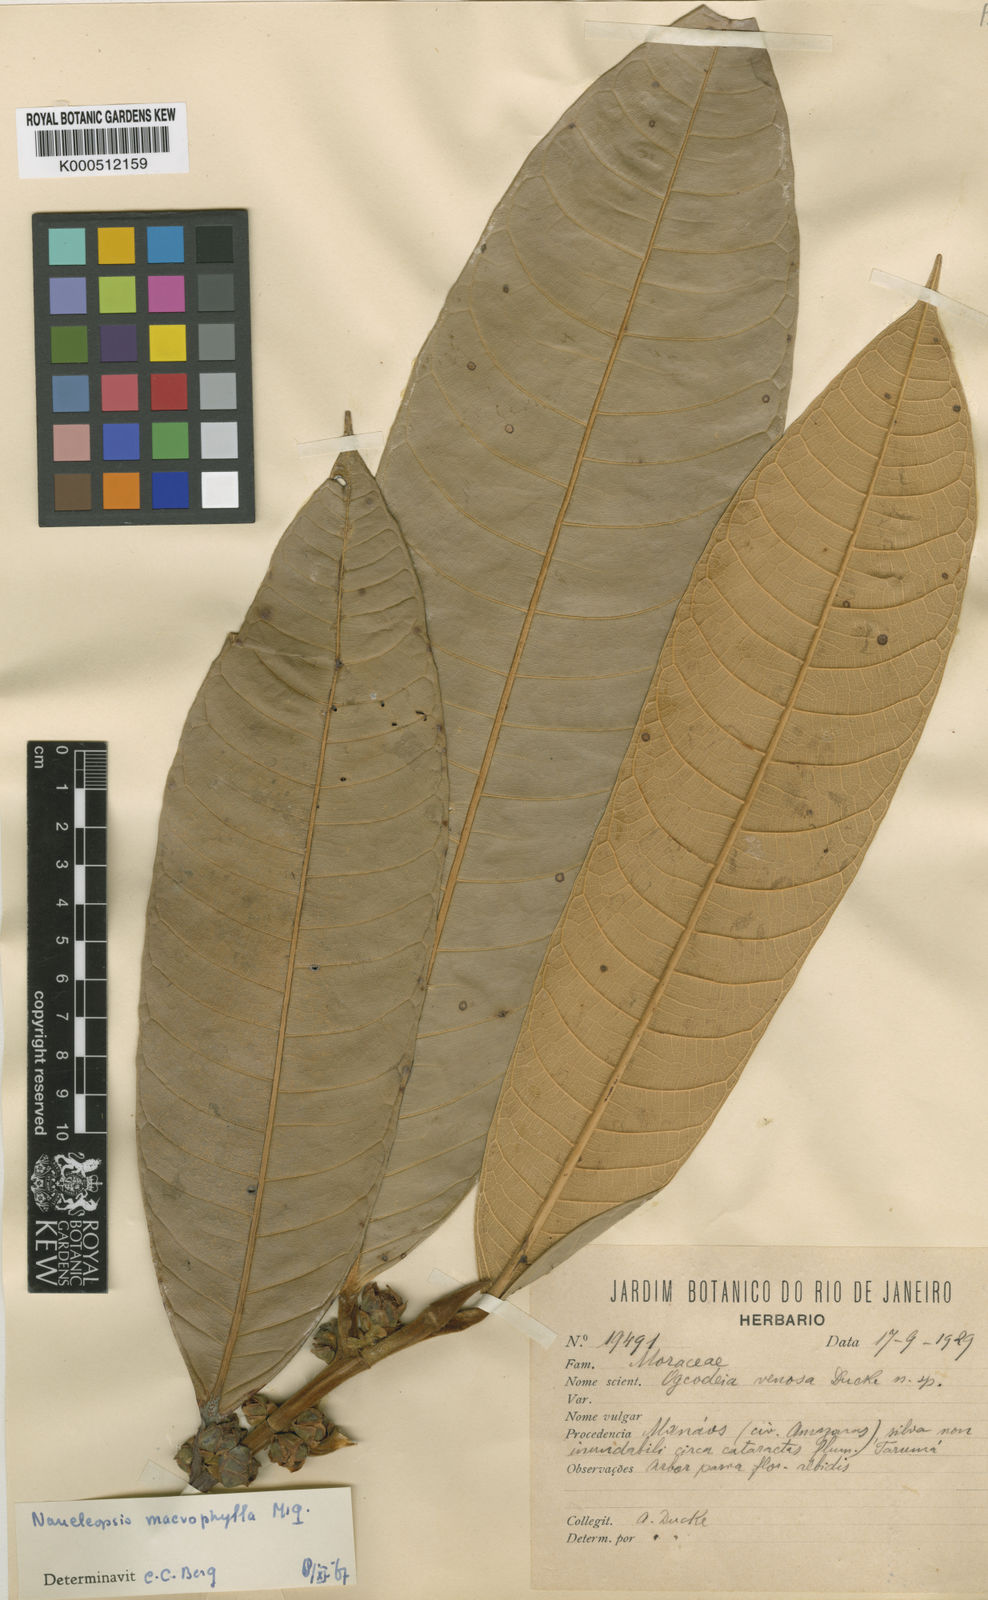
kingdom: Plantae
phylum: Tracheophyta
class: Magnoliopsida
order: Rosales
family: Moraceae
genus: Naucleopsis
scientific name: Naucleopsis macrophylla
